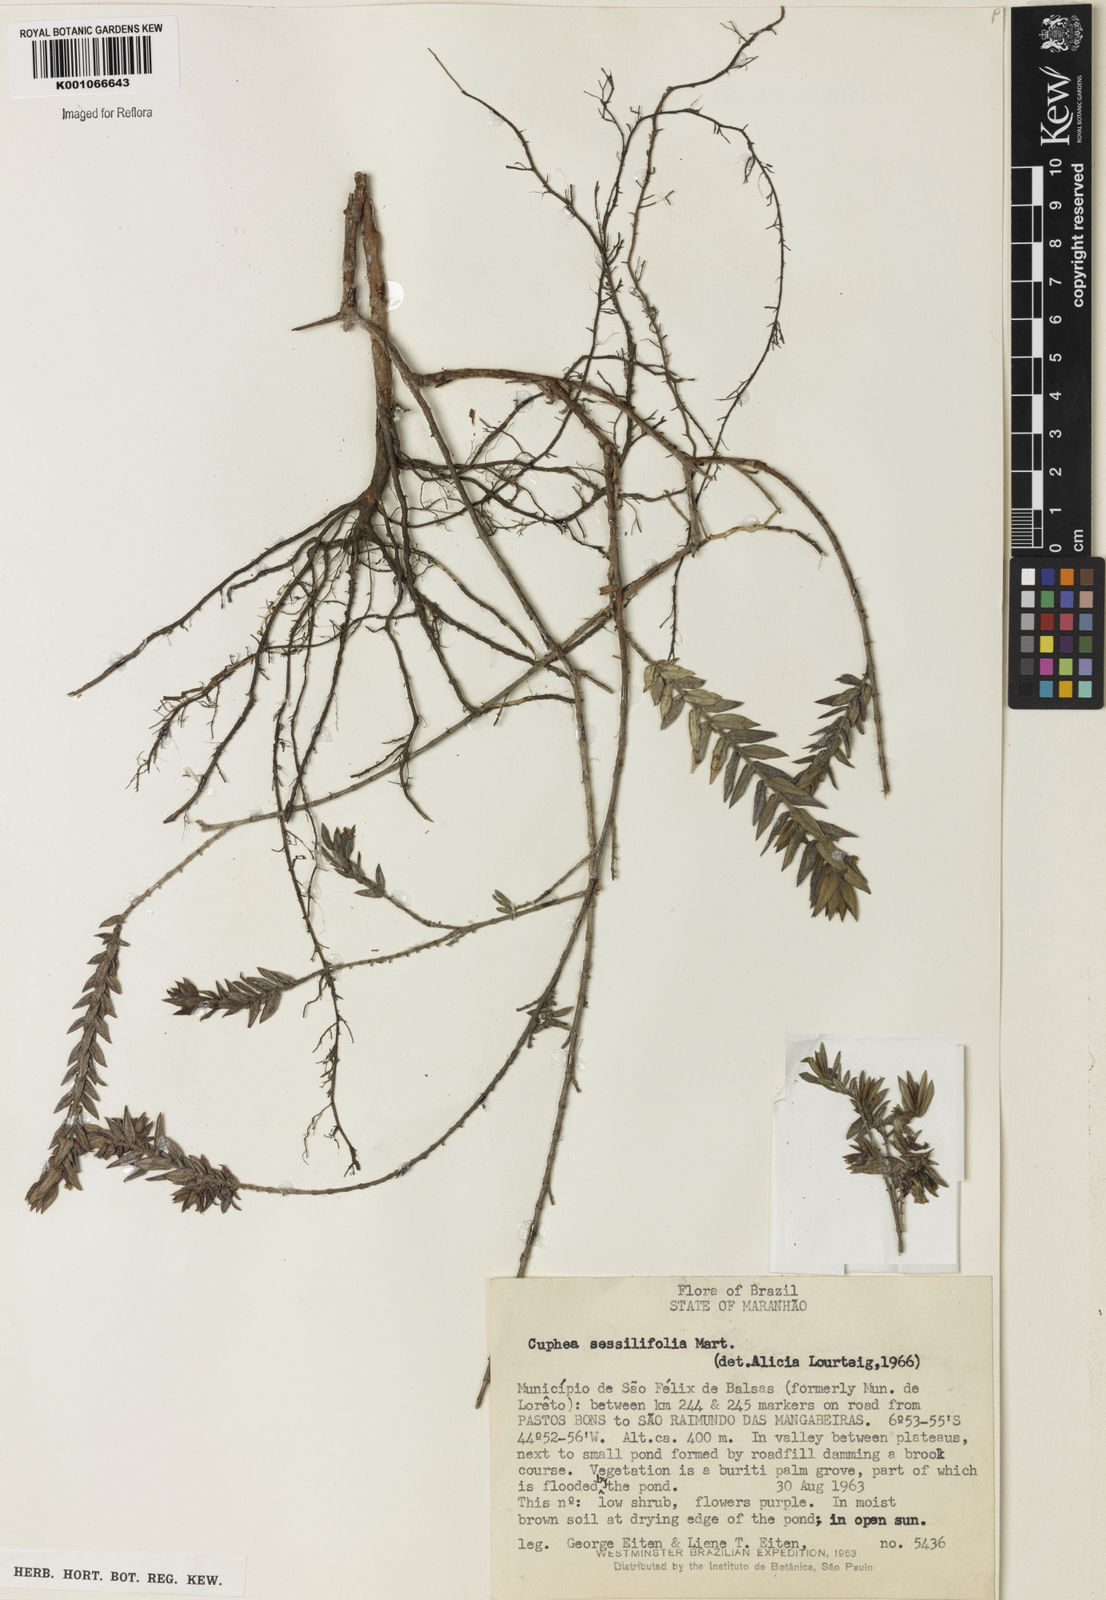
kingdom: Plantae
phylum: Tracheophyta
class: Magnoliopsida
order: Myrtales
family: Lythraceae
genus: Cuphea
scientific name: Cuphea
